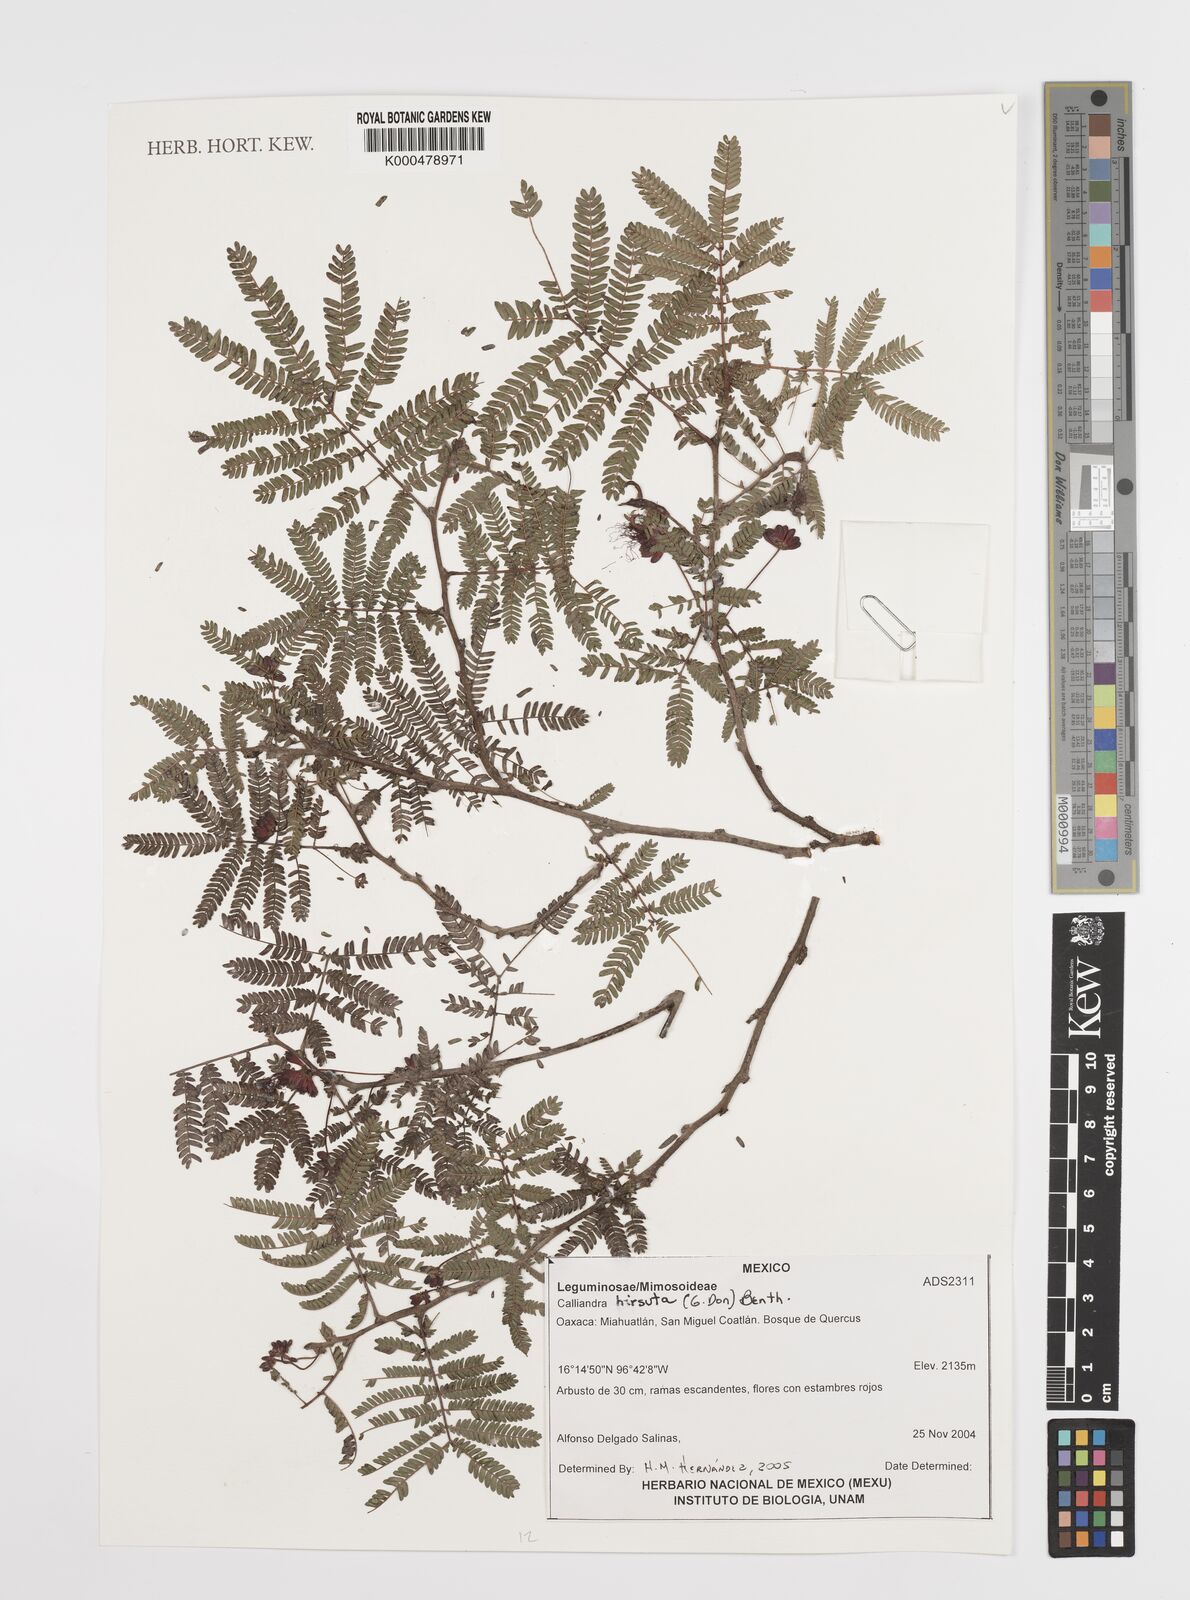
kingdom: Plantae
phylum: Tracheophyta
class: Magnoliopsida
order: Fabales
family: Fabaceae
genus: Calliandra
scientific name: Calliandra hirsuta
